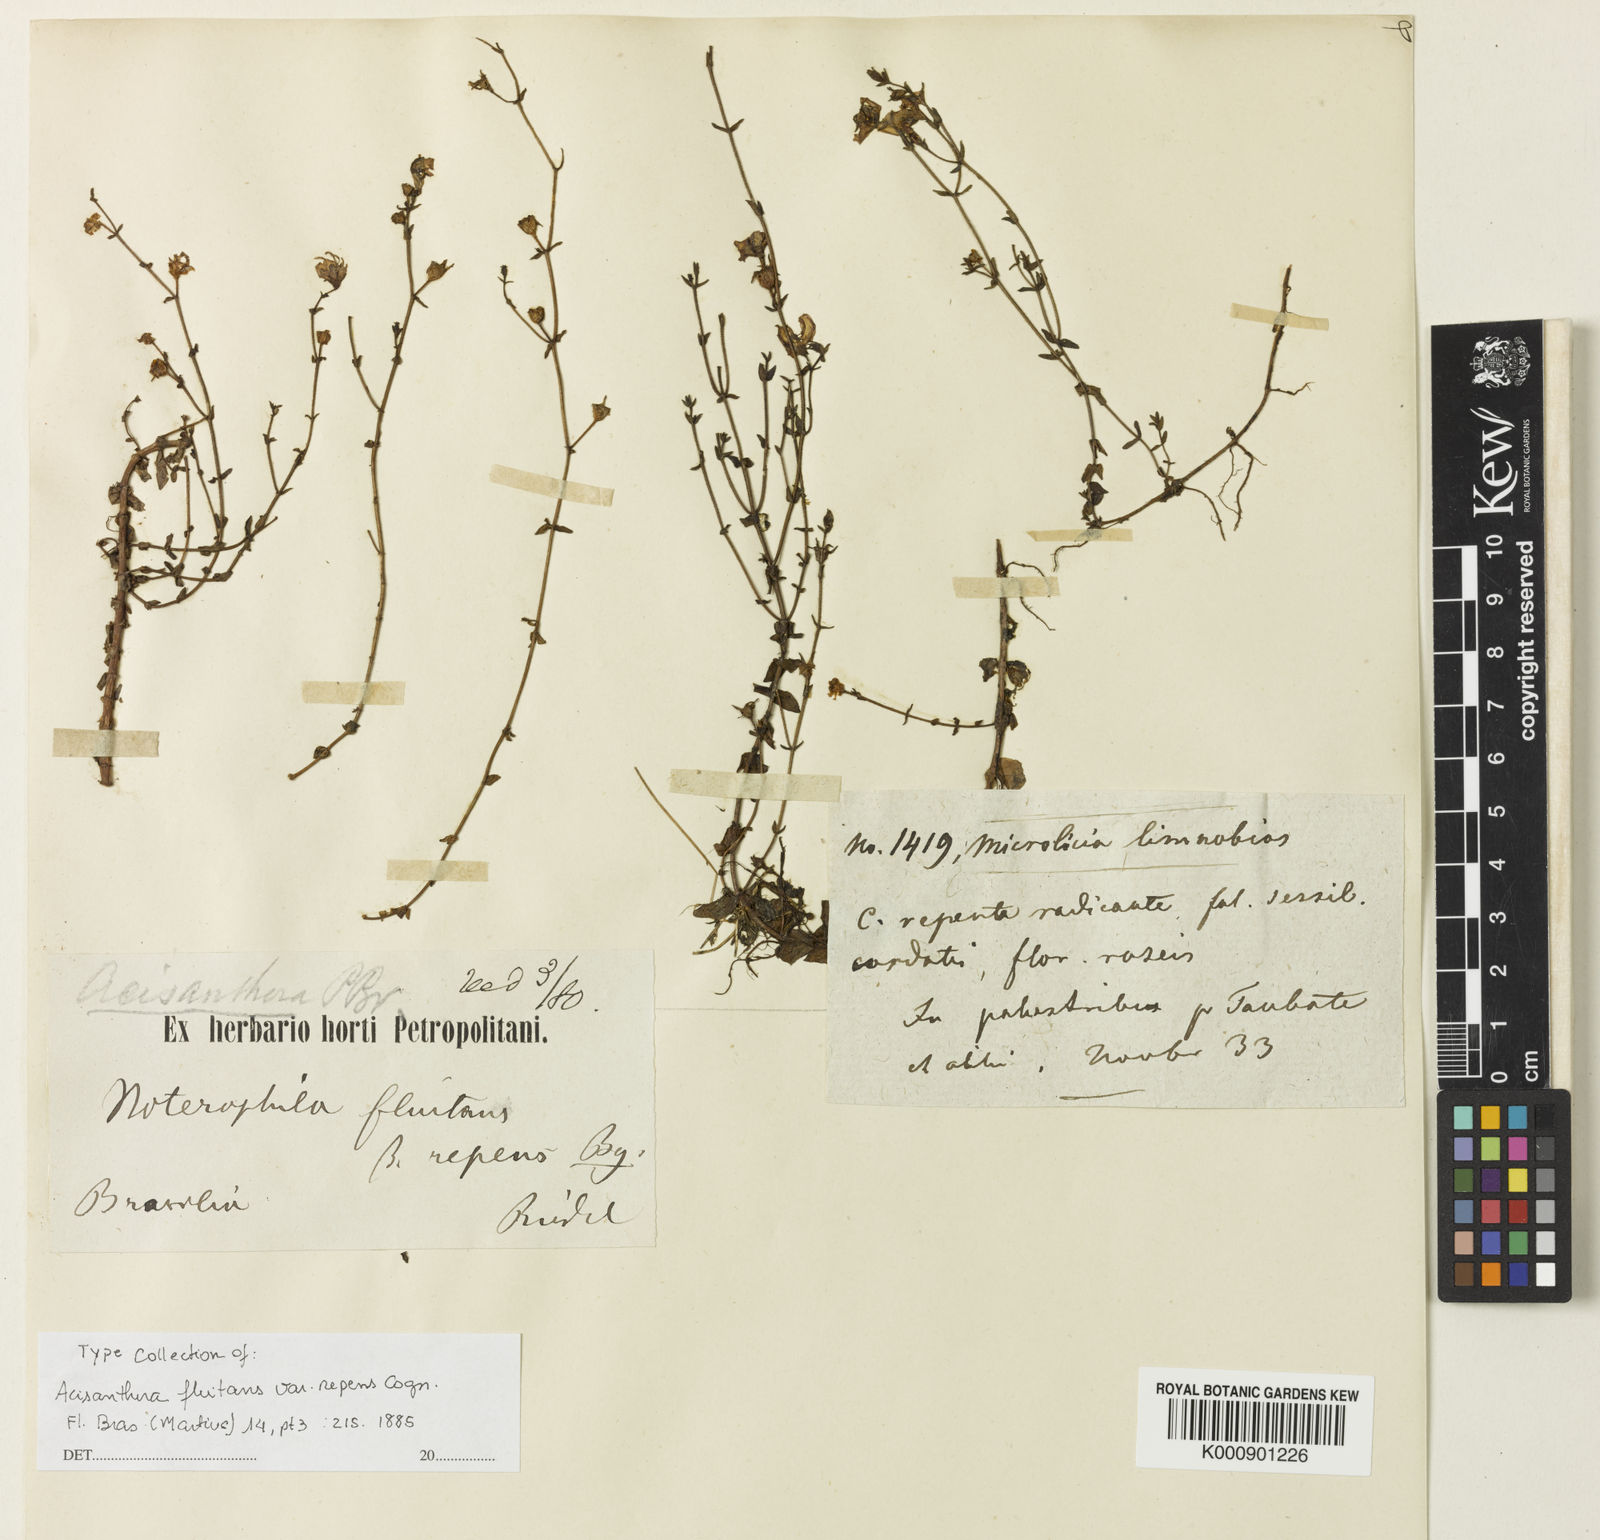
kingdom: Plantae
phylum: Tracheophyta
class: Magnoliopsida
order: Myrtales
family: Melastomataceae
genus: Noterophila
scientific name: Noterophila limnobios
